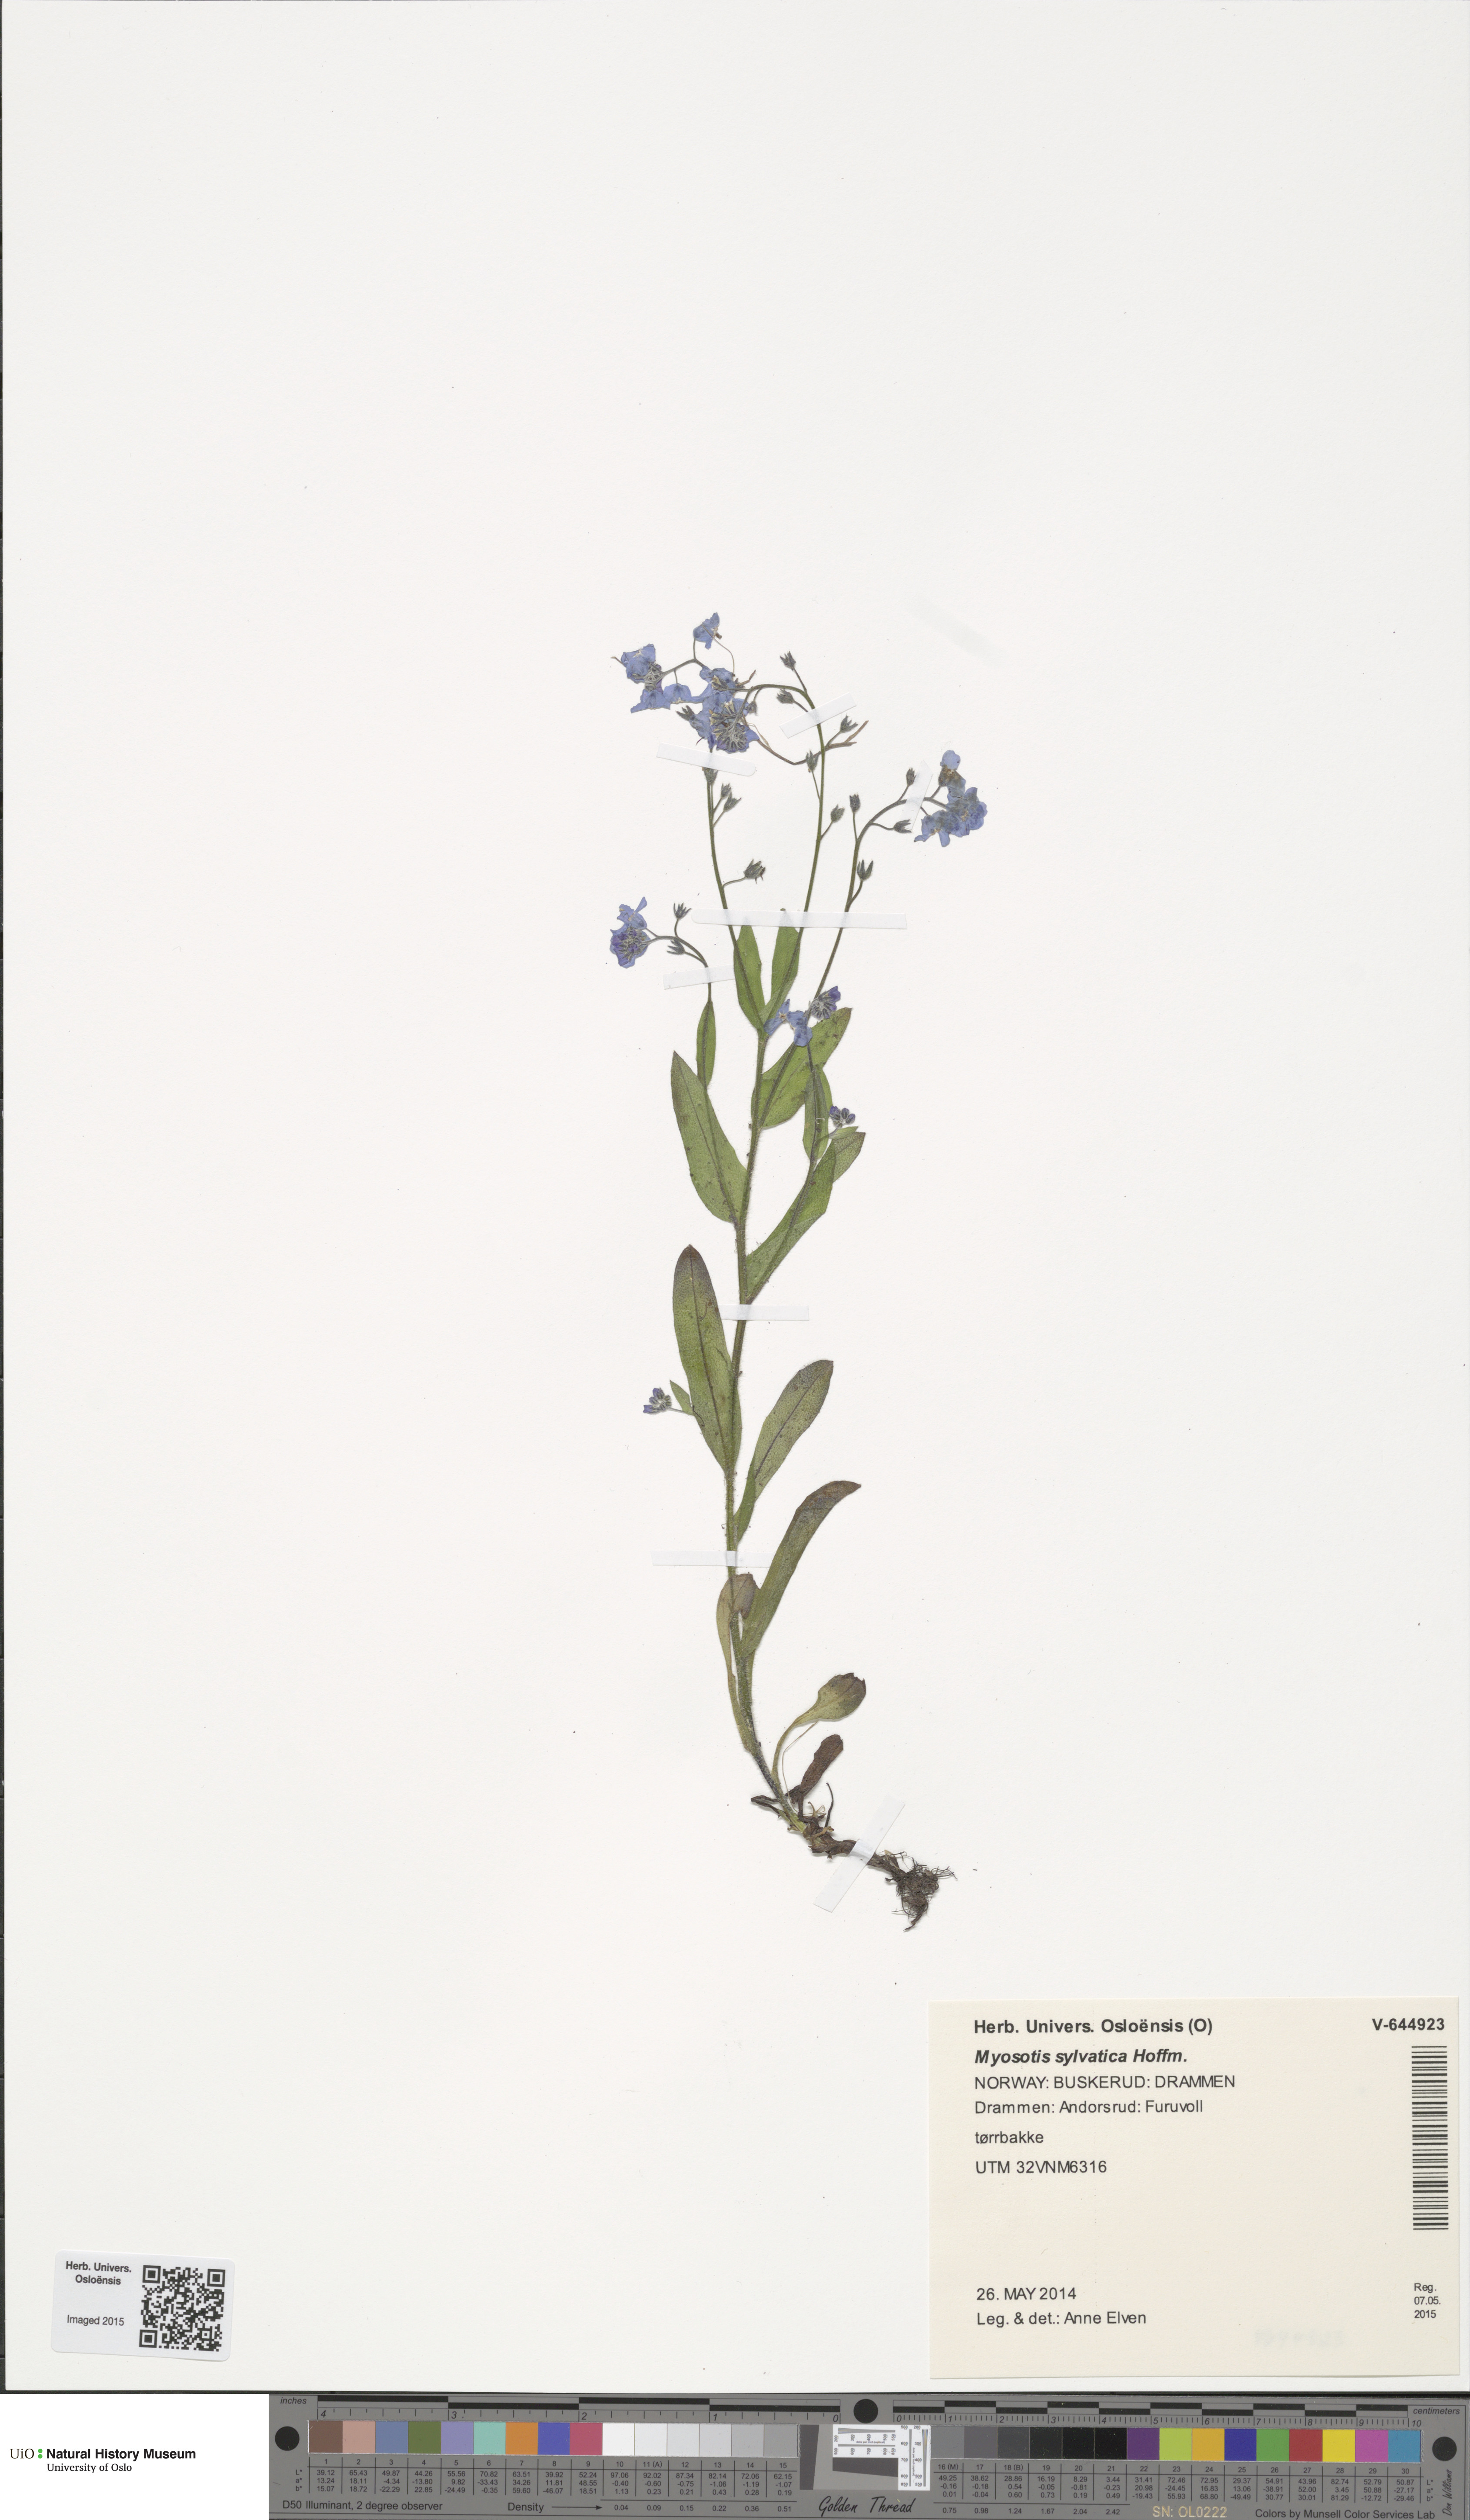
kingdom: Plantae
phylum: Tracheophyta
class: Magnoliopsida
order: Boraginales
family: Boraginaceae
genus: Myosotis
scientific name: Myosotis sylvatica
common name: Wood forget-me-not
